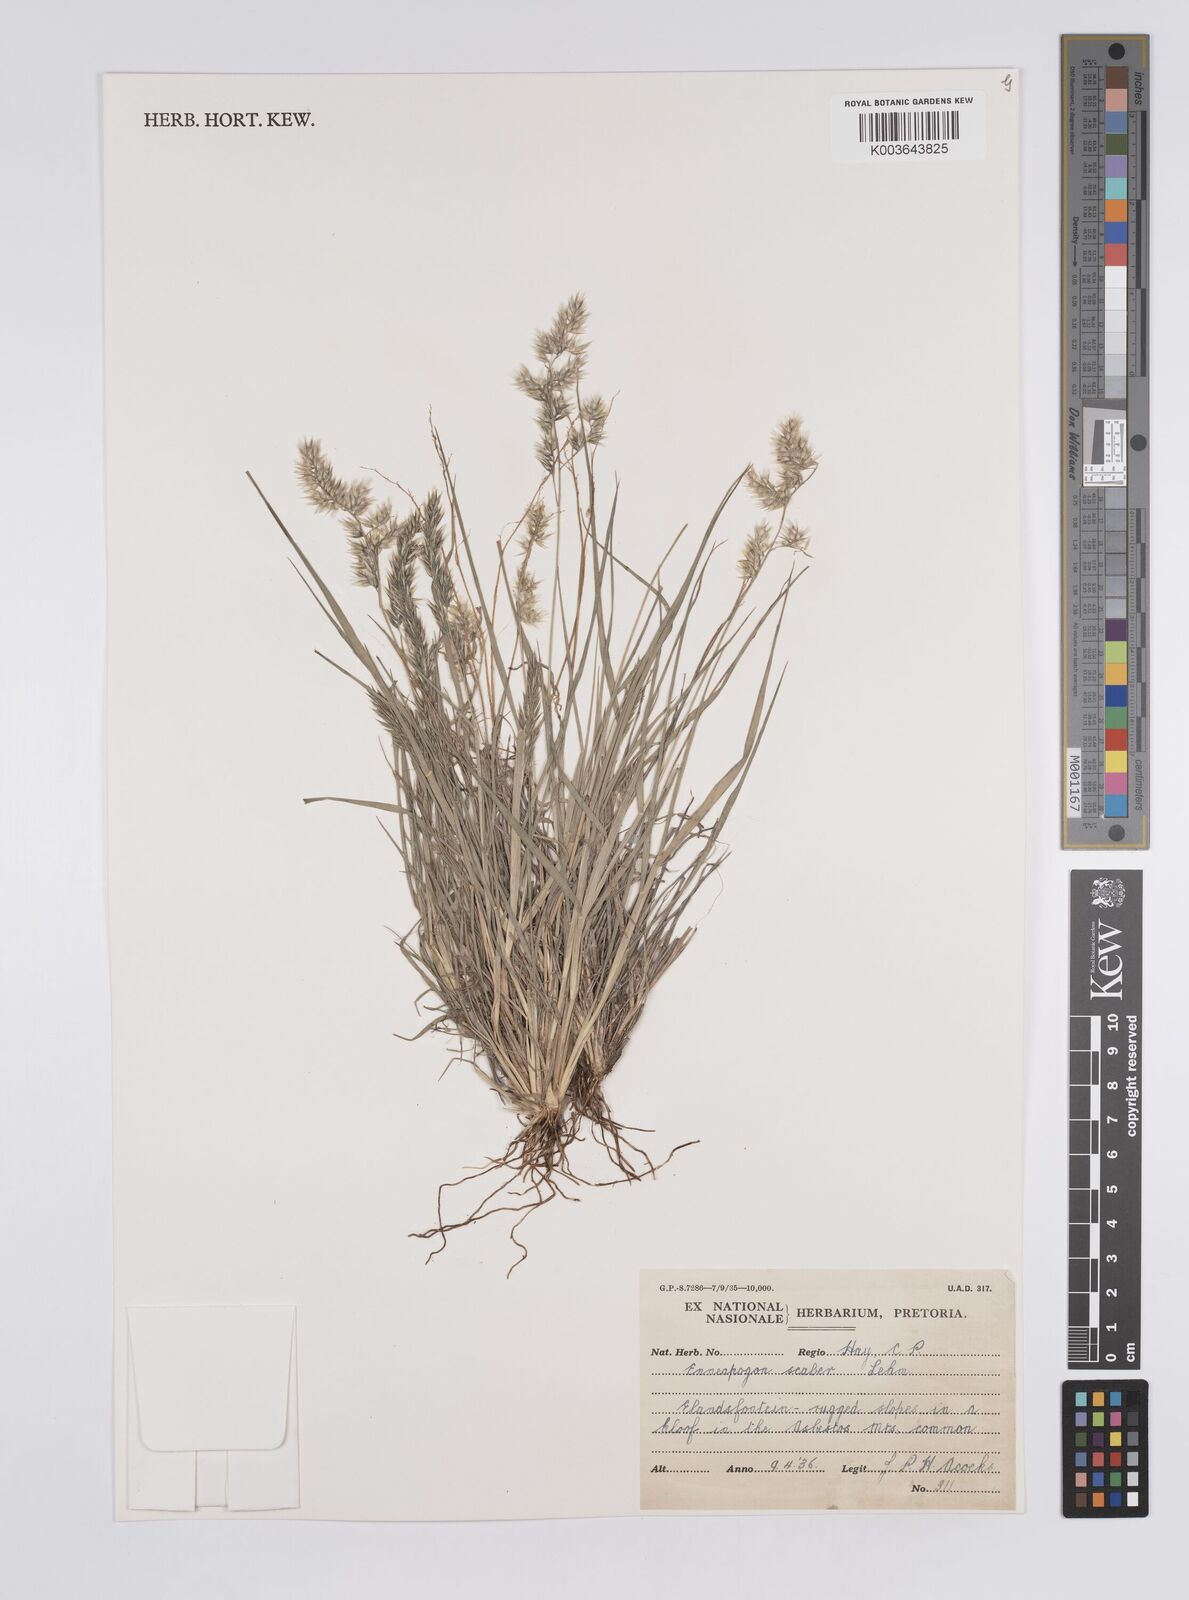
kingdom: Plantae
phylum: Tracheophyta
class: Liliopsida
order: Poales
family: Poaceae
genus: Enneapogon
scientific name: Enneapogon scaber
